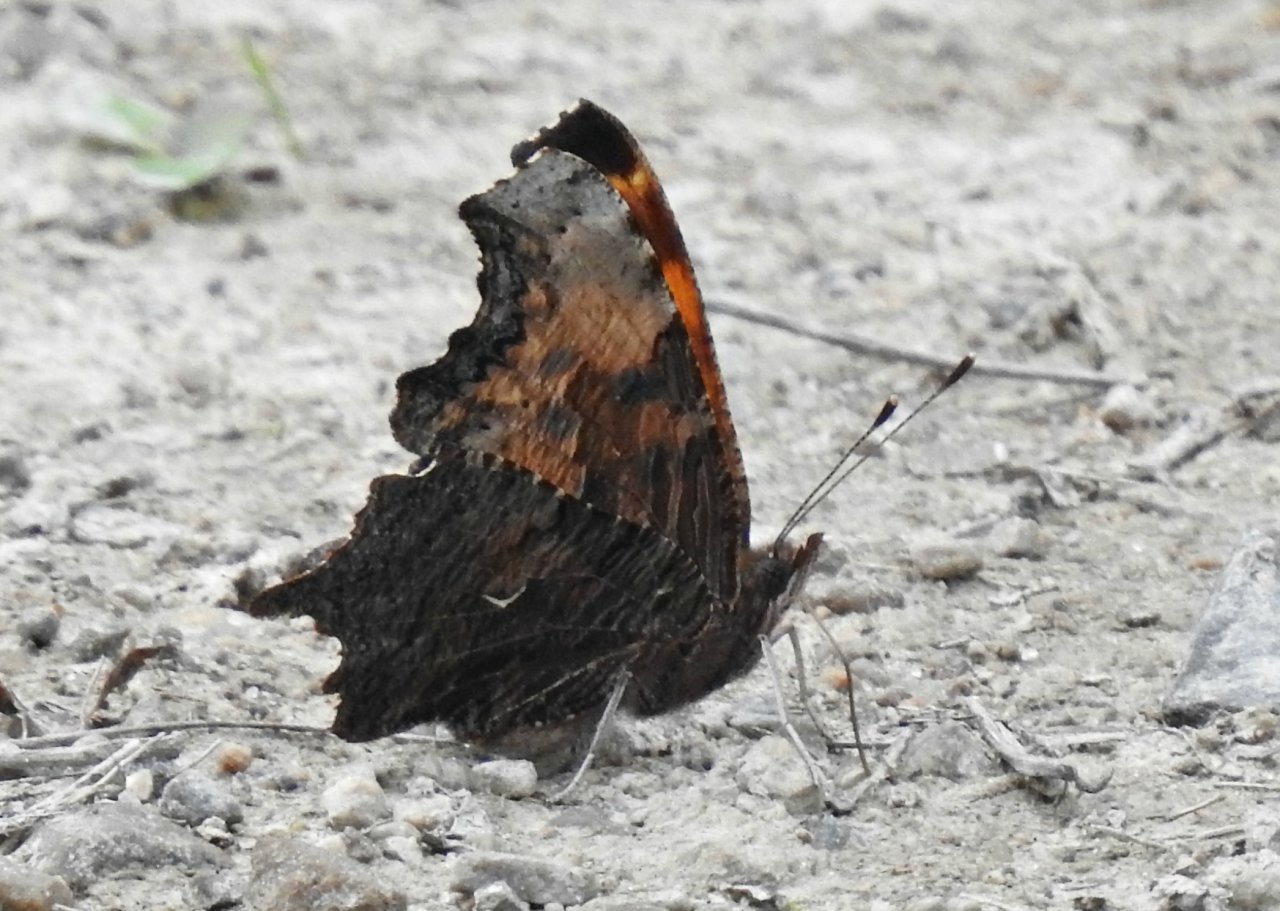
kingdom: Animalia
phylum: Arthropoda
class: Insecta
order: Lepidoptera
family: Nymphalidae
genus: Polygonia
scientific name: Polygonia progne
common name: Gray Comma
